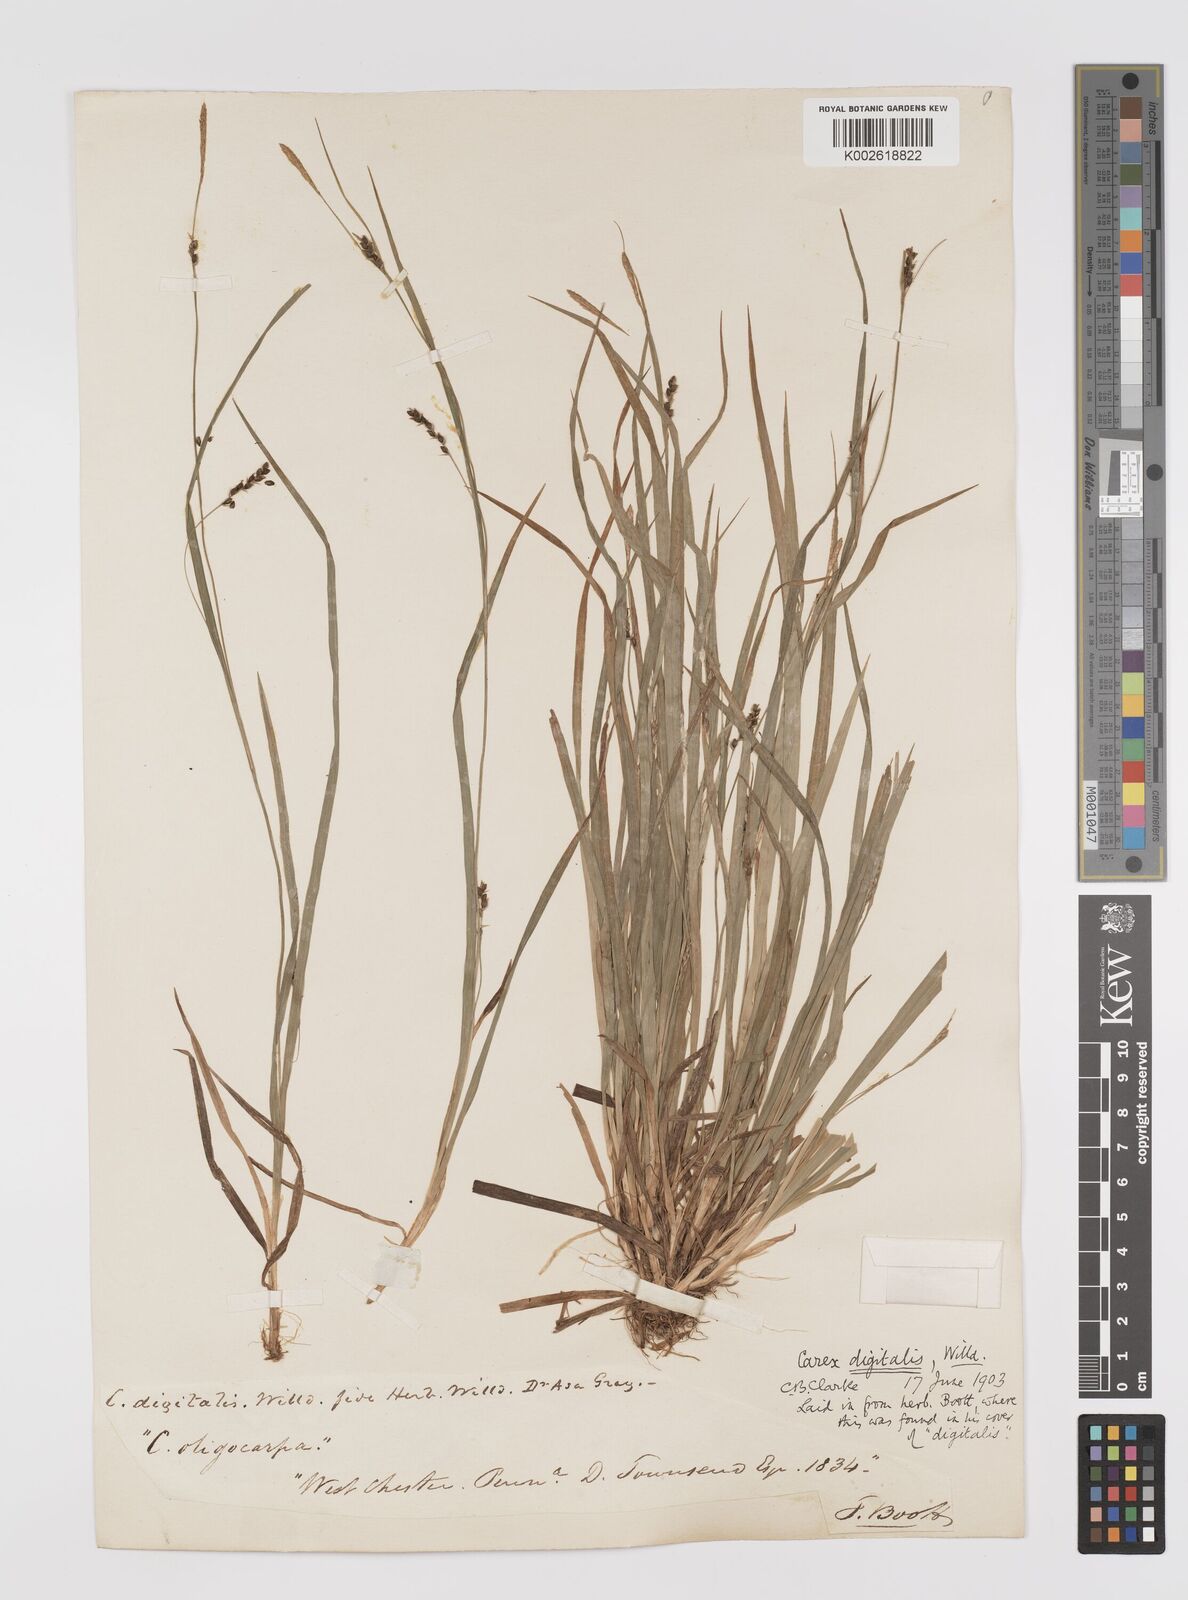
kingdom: Plantae
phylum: Tracheophyta
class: Liliopsida
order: Poales
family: Cyperaceae
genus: Carex
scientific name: Carex digitalis
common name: Slender wood sedge
